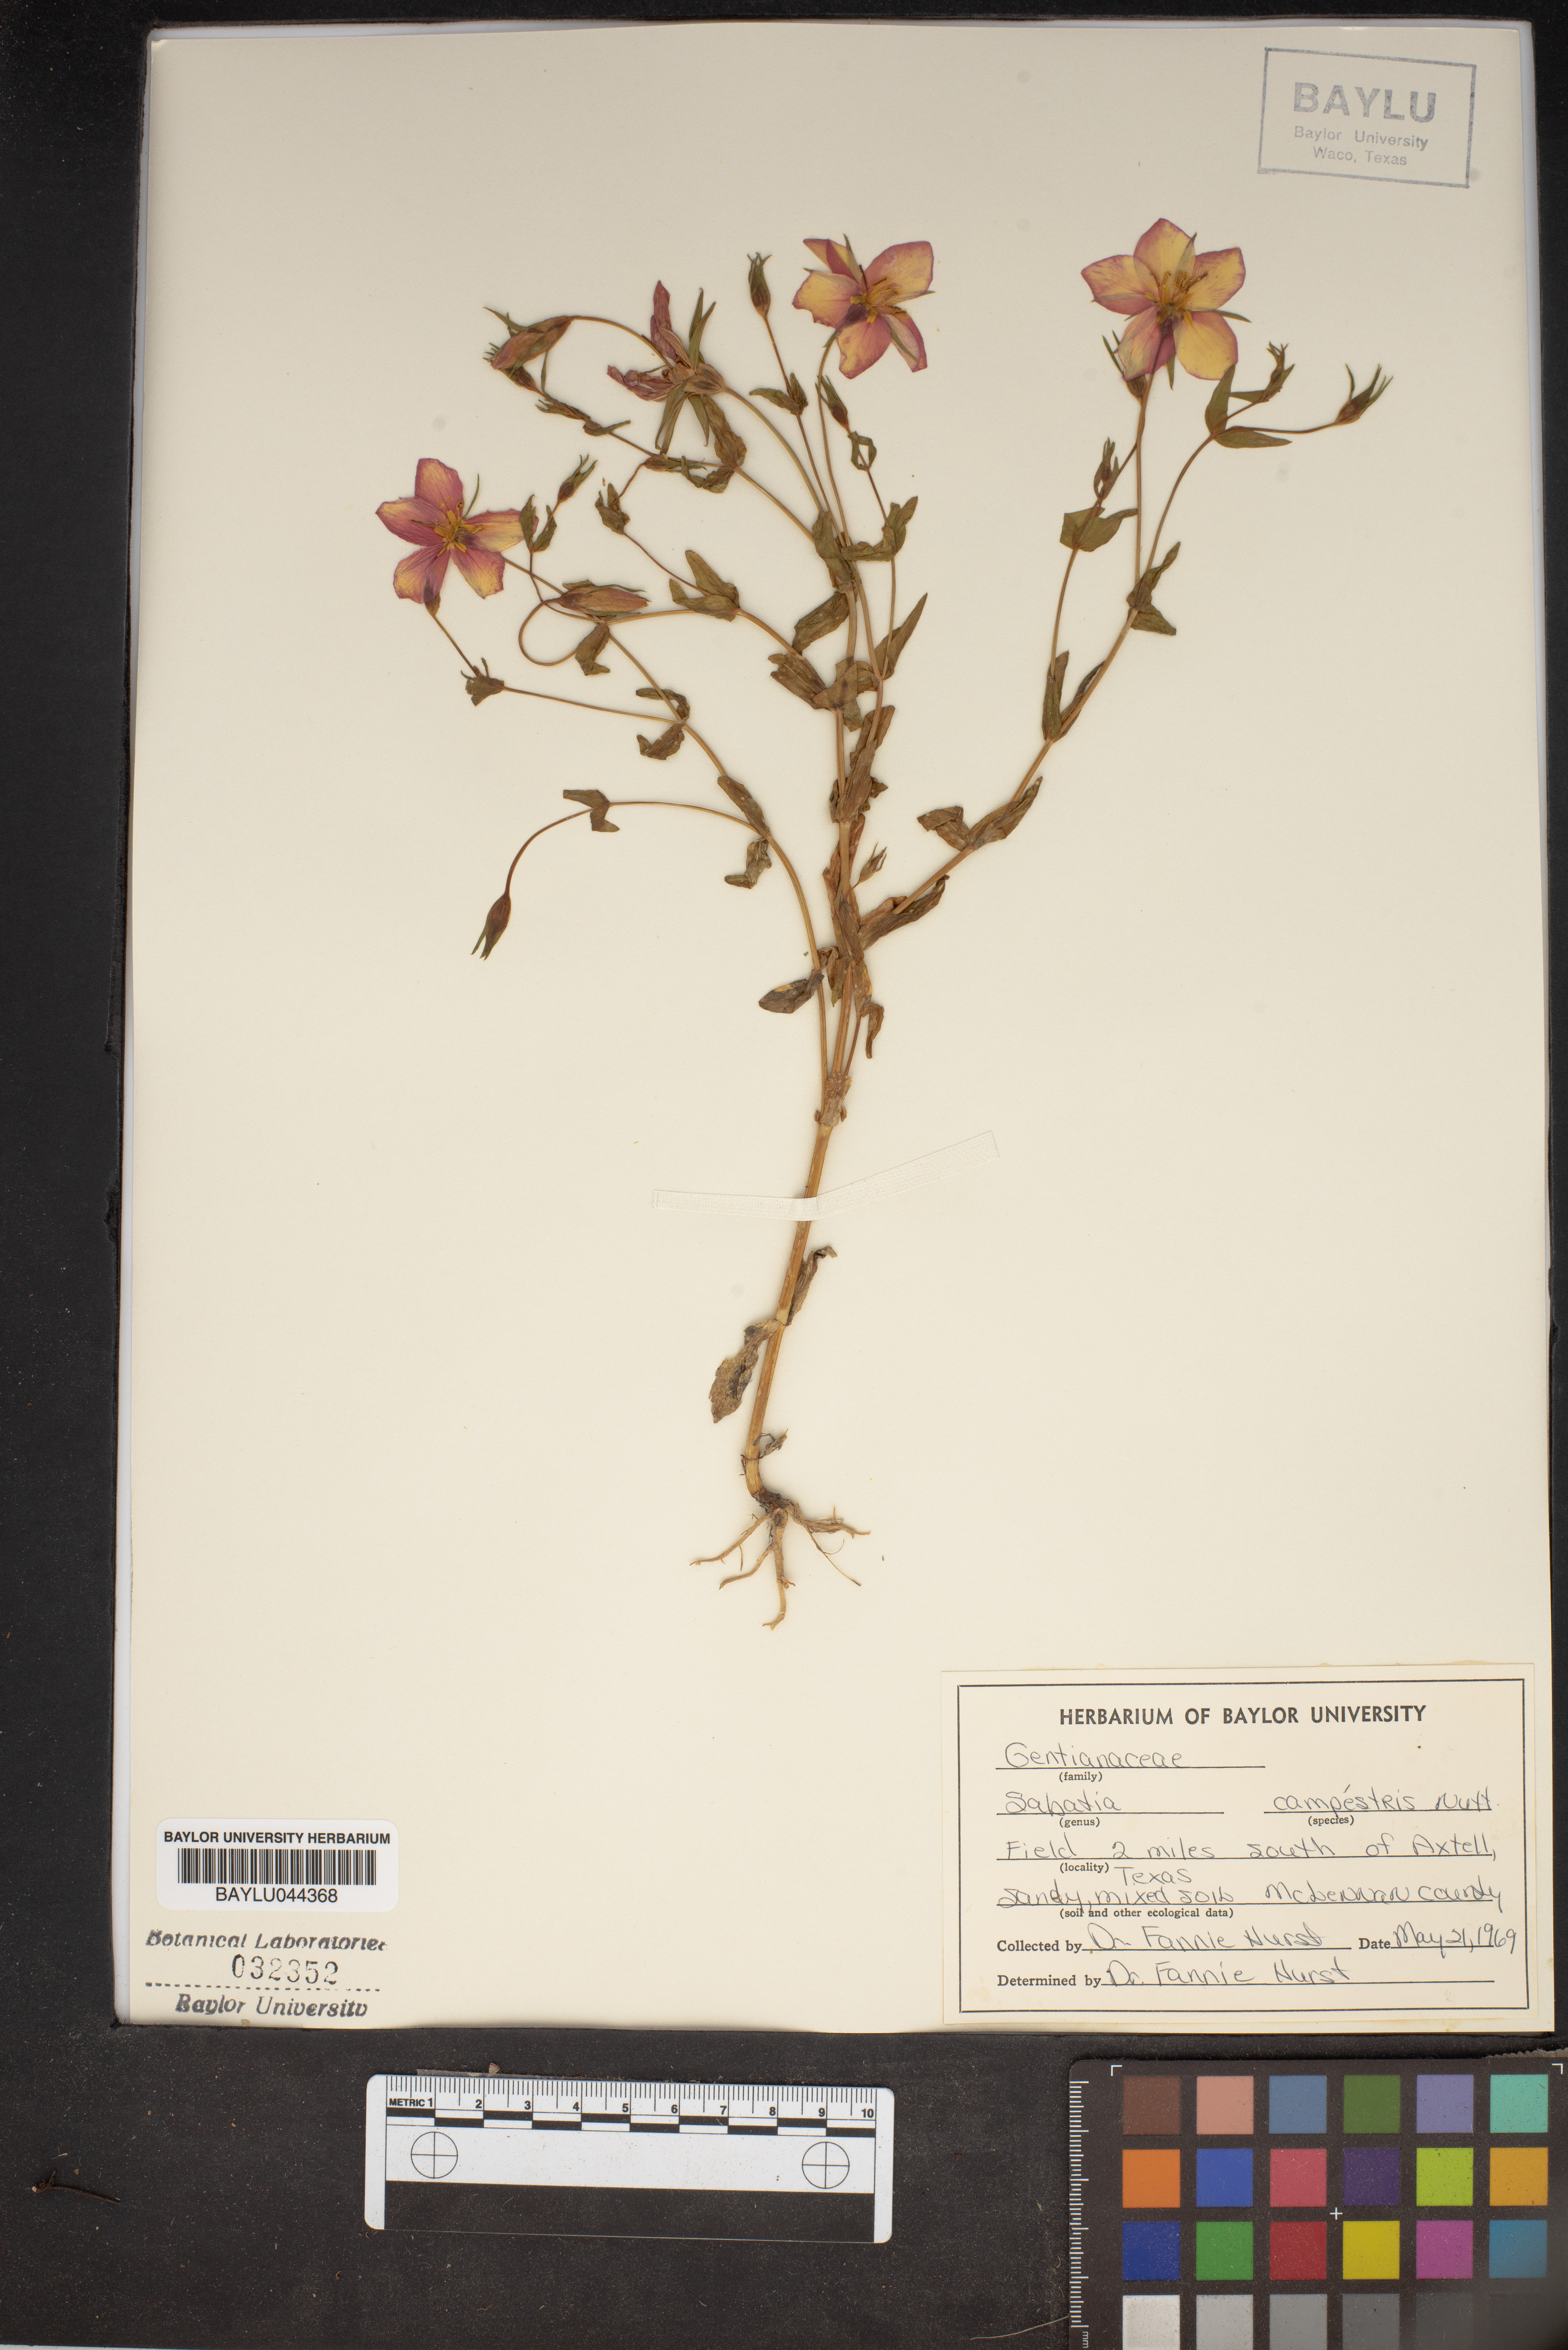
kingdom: Plantae
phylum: Tracheophyta
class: Magnoliopsida
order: Gentianales
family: Gentianaceae
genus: Sabatia
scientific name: Sabatia campestris
